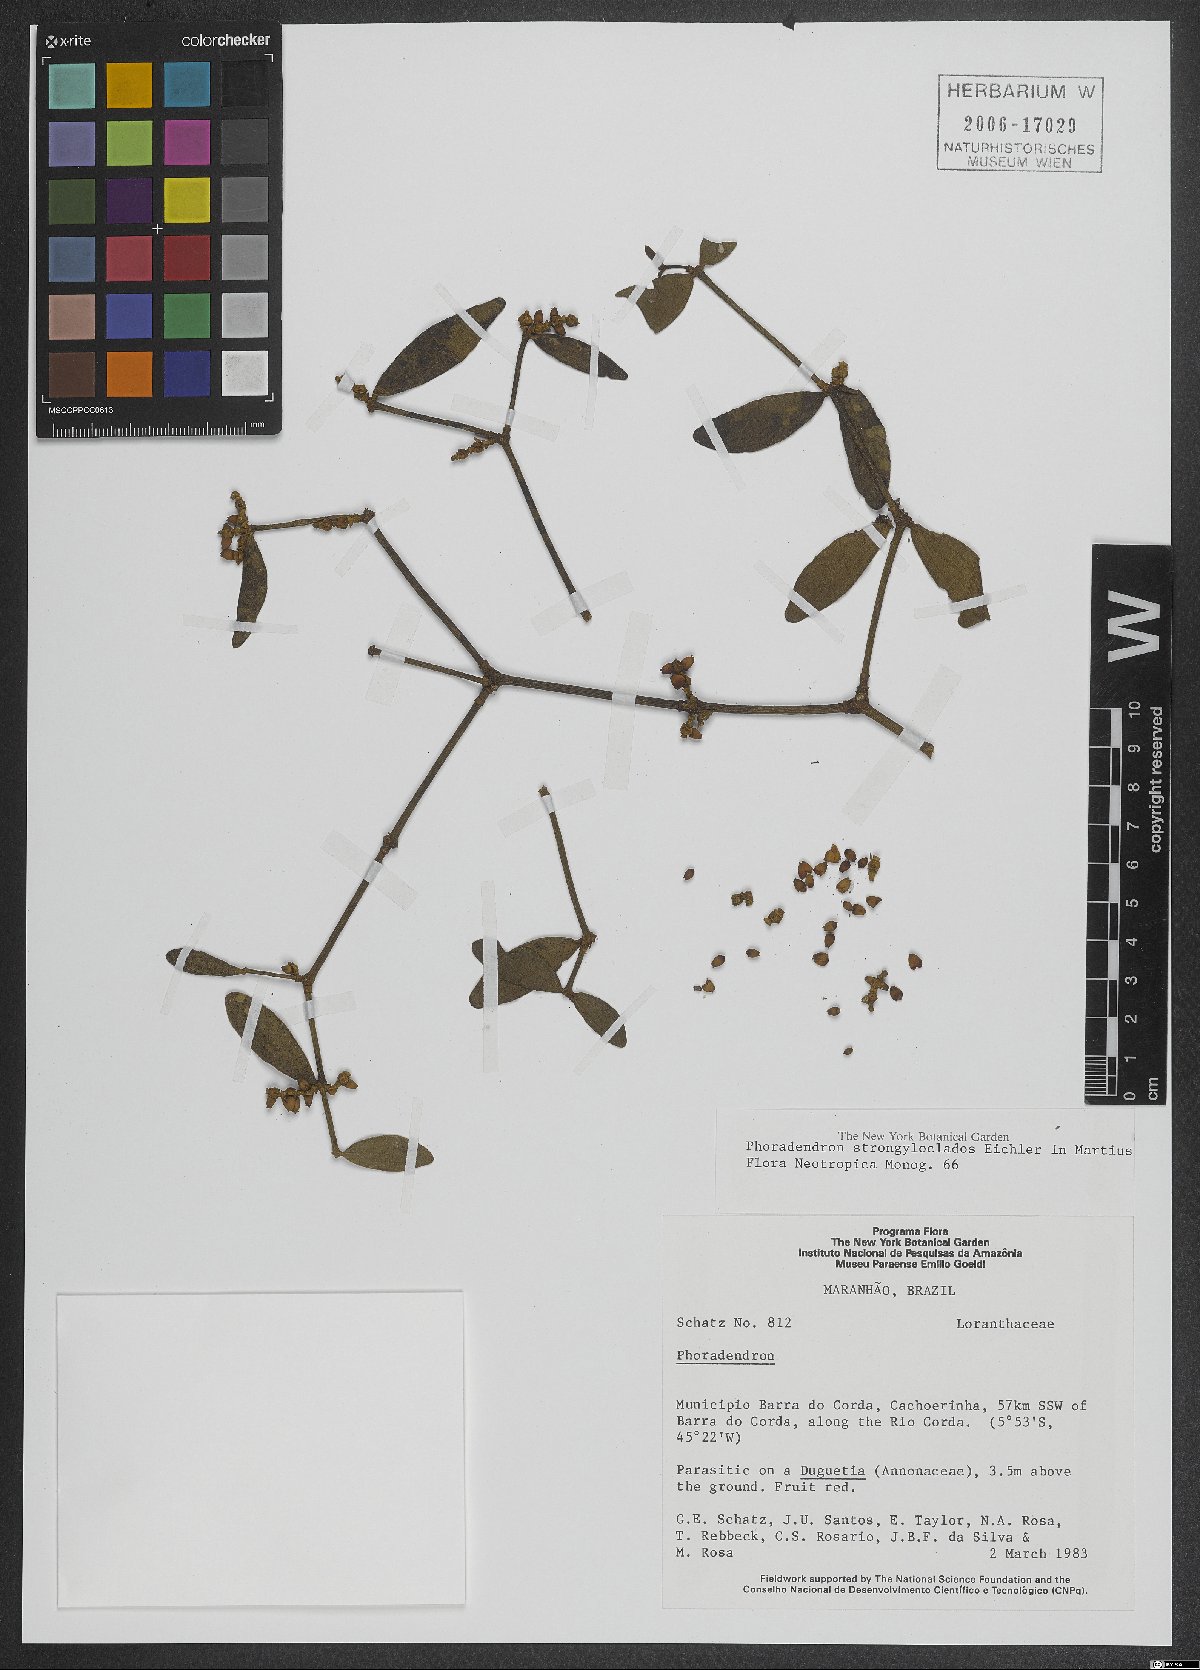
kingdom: Plantae
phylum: Tracheophyta
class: Magnoliopsida
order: Santalales
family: Viscaceae
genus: Phoradendron
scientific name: Phoradendron strongyloclados
